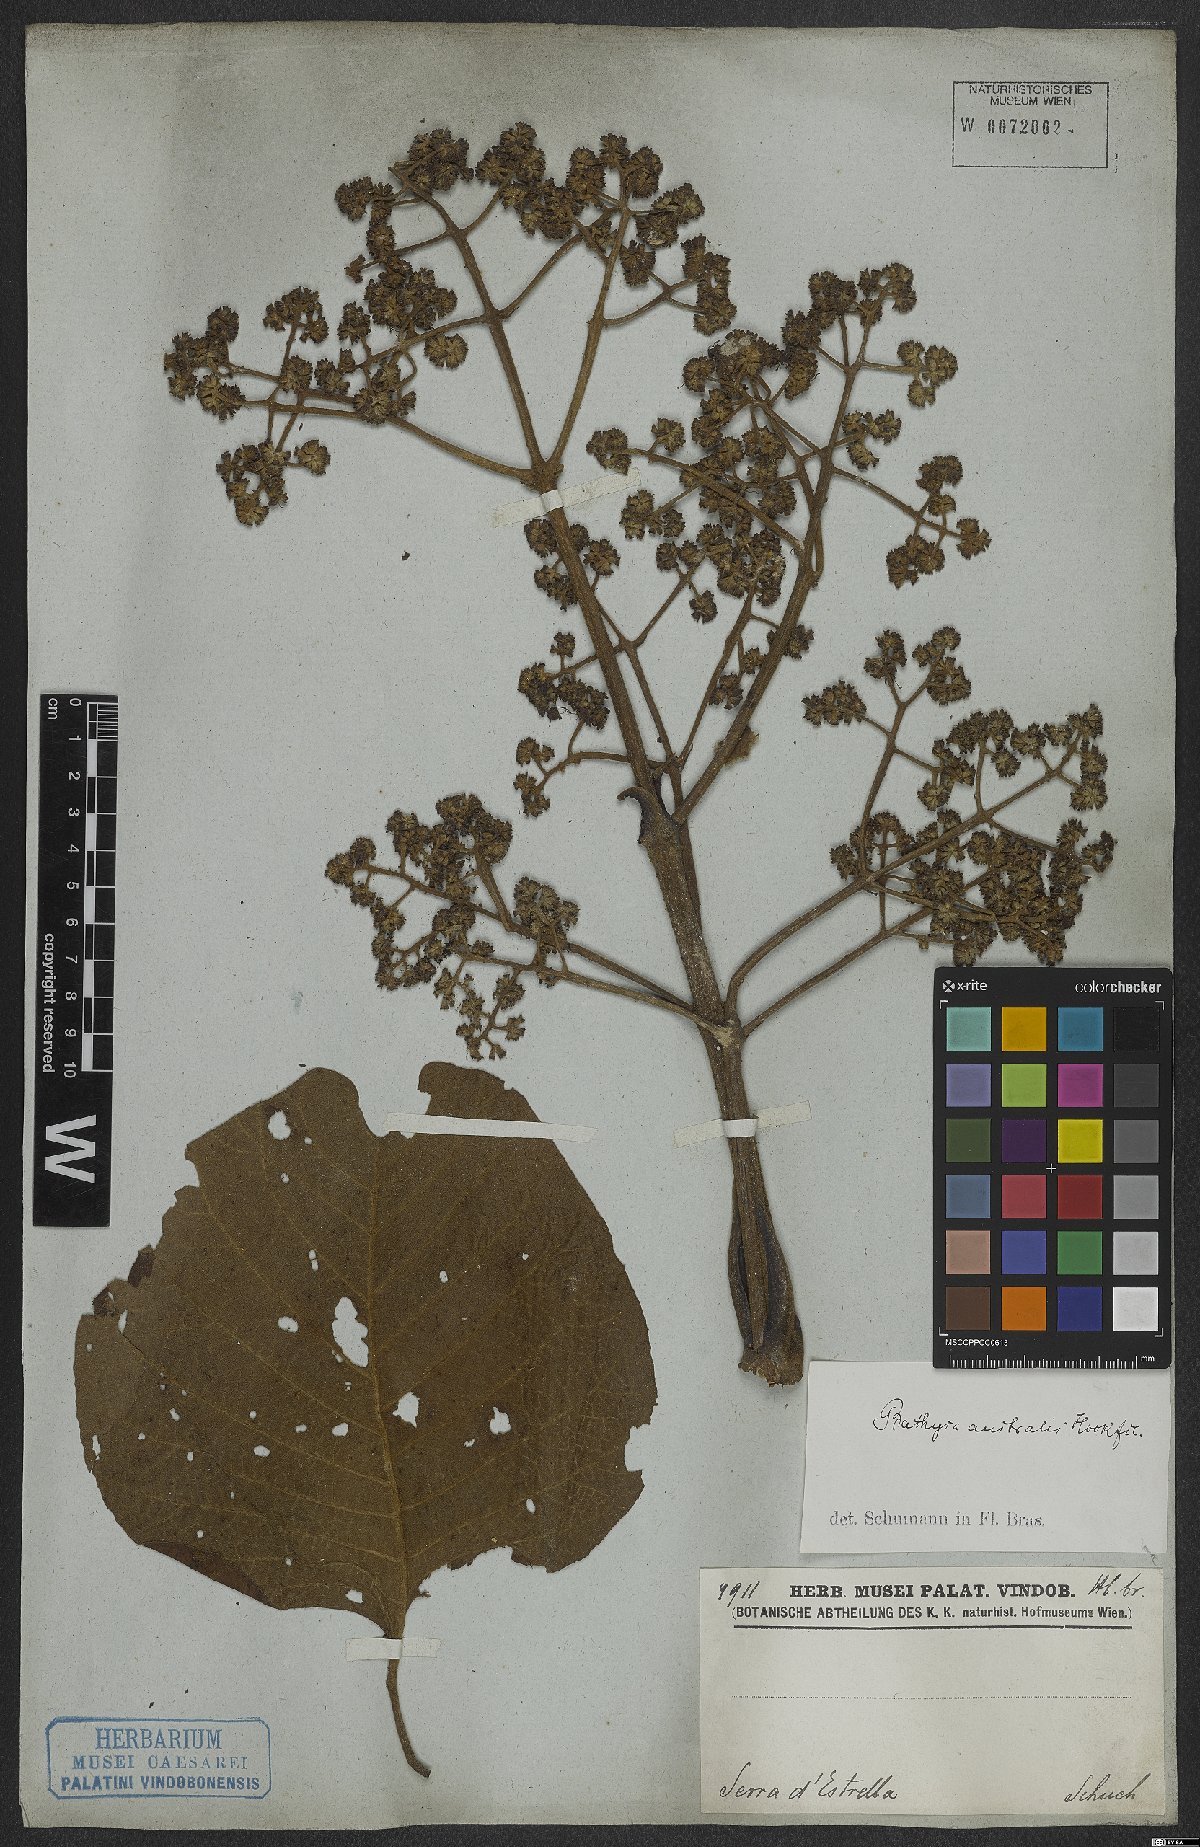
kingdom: Plantae
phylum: Tracheophyta
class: Magnoliopsida
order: Gentianales
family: Rubiaceae
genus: Bathysa
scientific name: Bathysa australis
